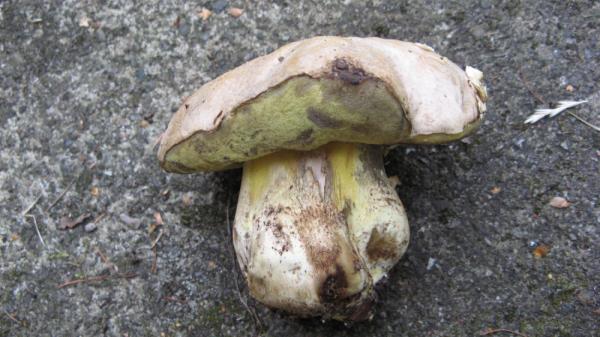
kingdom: Fungi
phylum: Basidiomycota
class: Agaricomycetes
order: Boletales
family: Boletaceae
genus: Caloboletus
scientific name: Caloboletus radicans
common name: rod-rørhat
